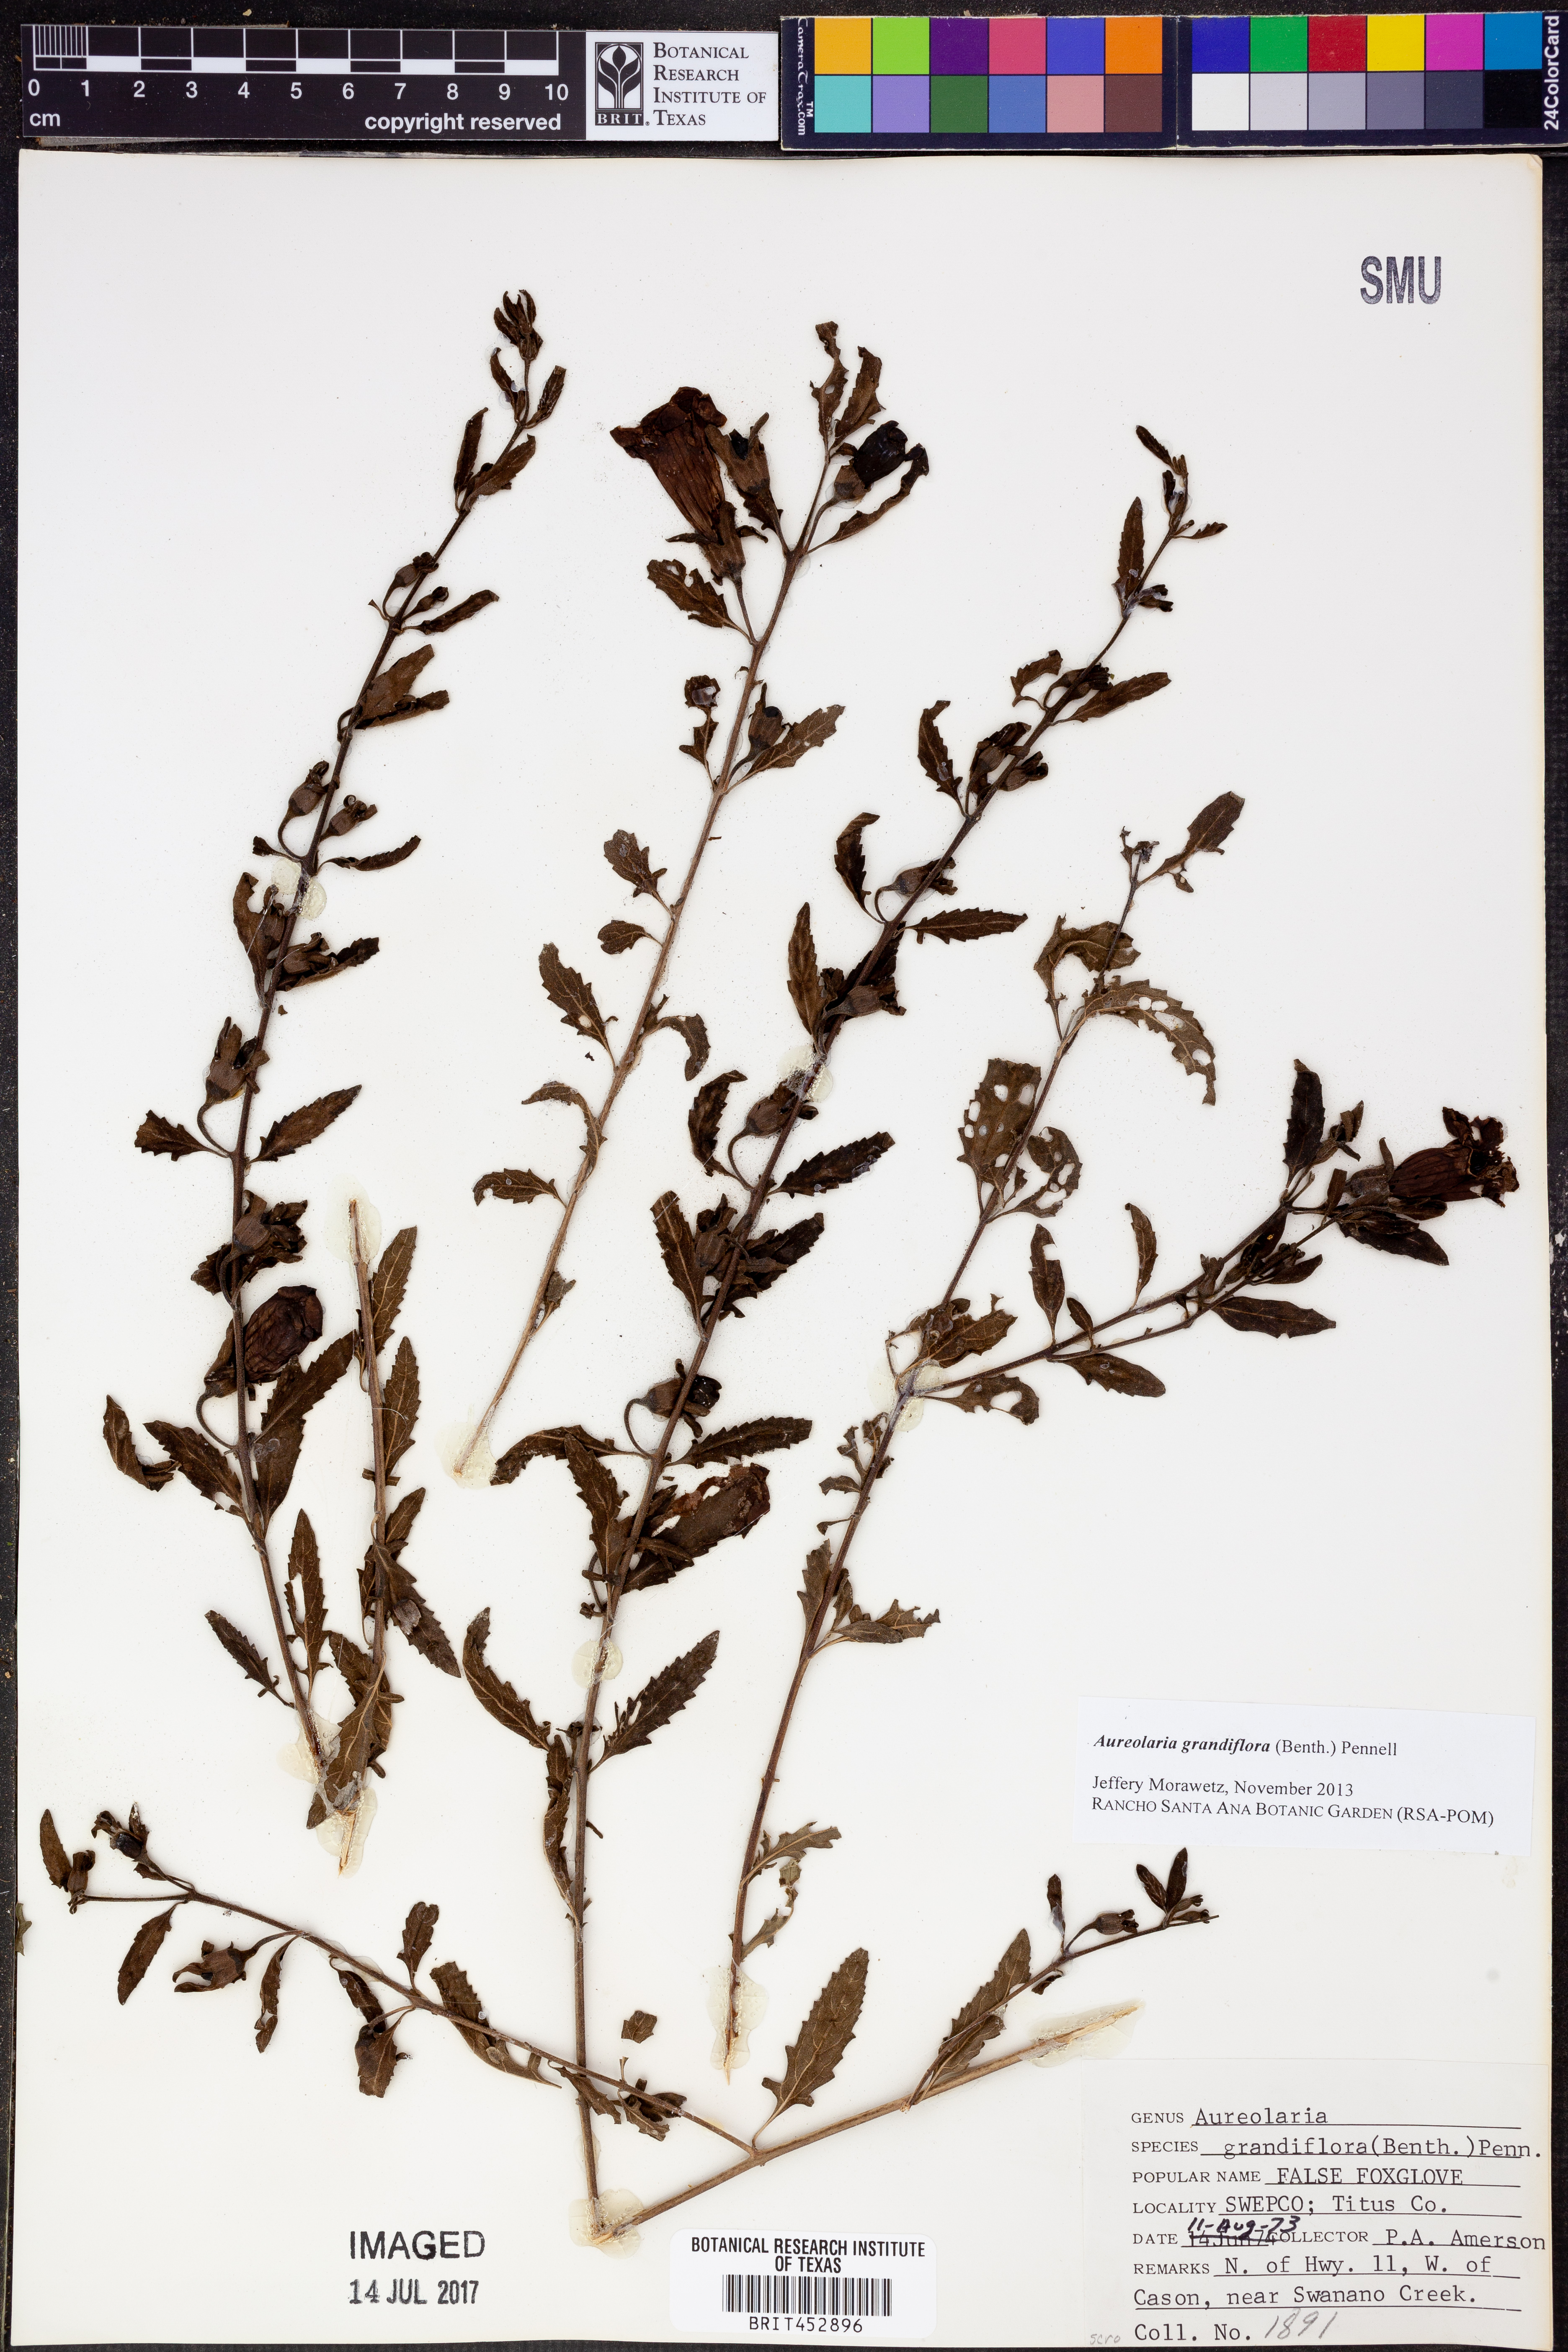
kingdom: Plantae
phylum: Tracheophyta
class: Magnoliopsida
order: Lamiales
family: Orobanchaceae
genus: Aureolaria
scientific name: Aureolaria grandiflora
